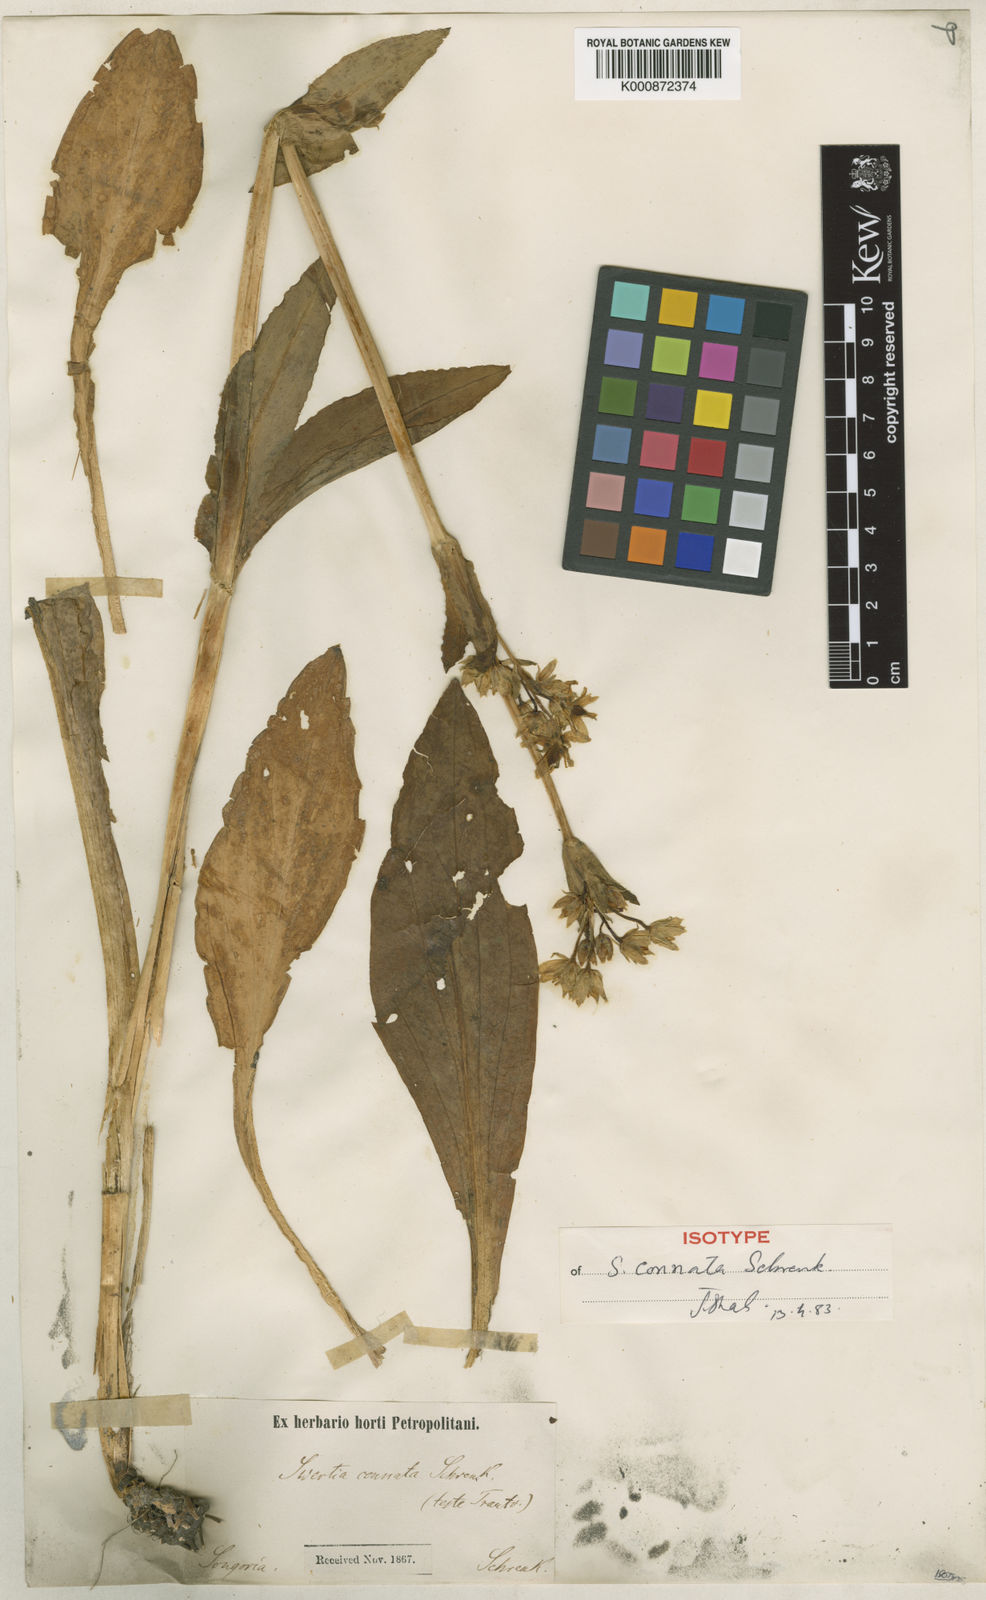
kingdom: Plantae
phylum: Tracheophyta
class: Magnoliopsida
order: Gentianales
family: Gentianaceae
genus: Swertia
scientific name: Swertia connata
